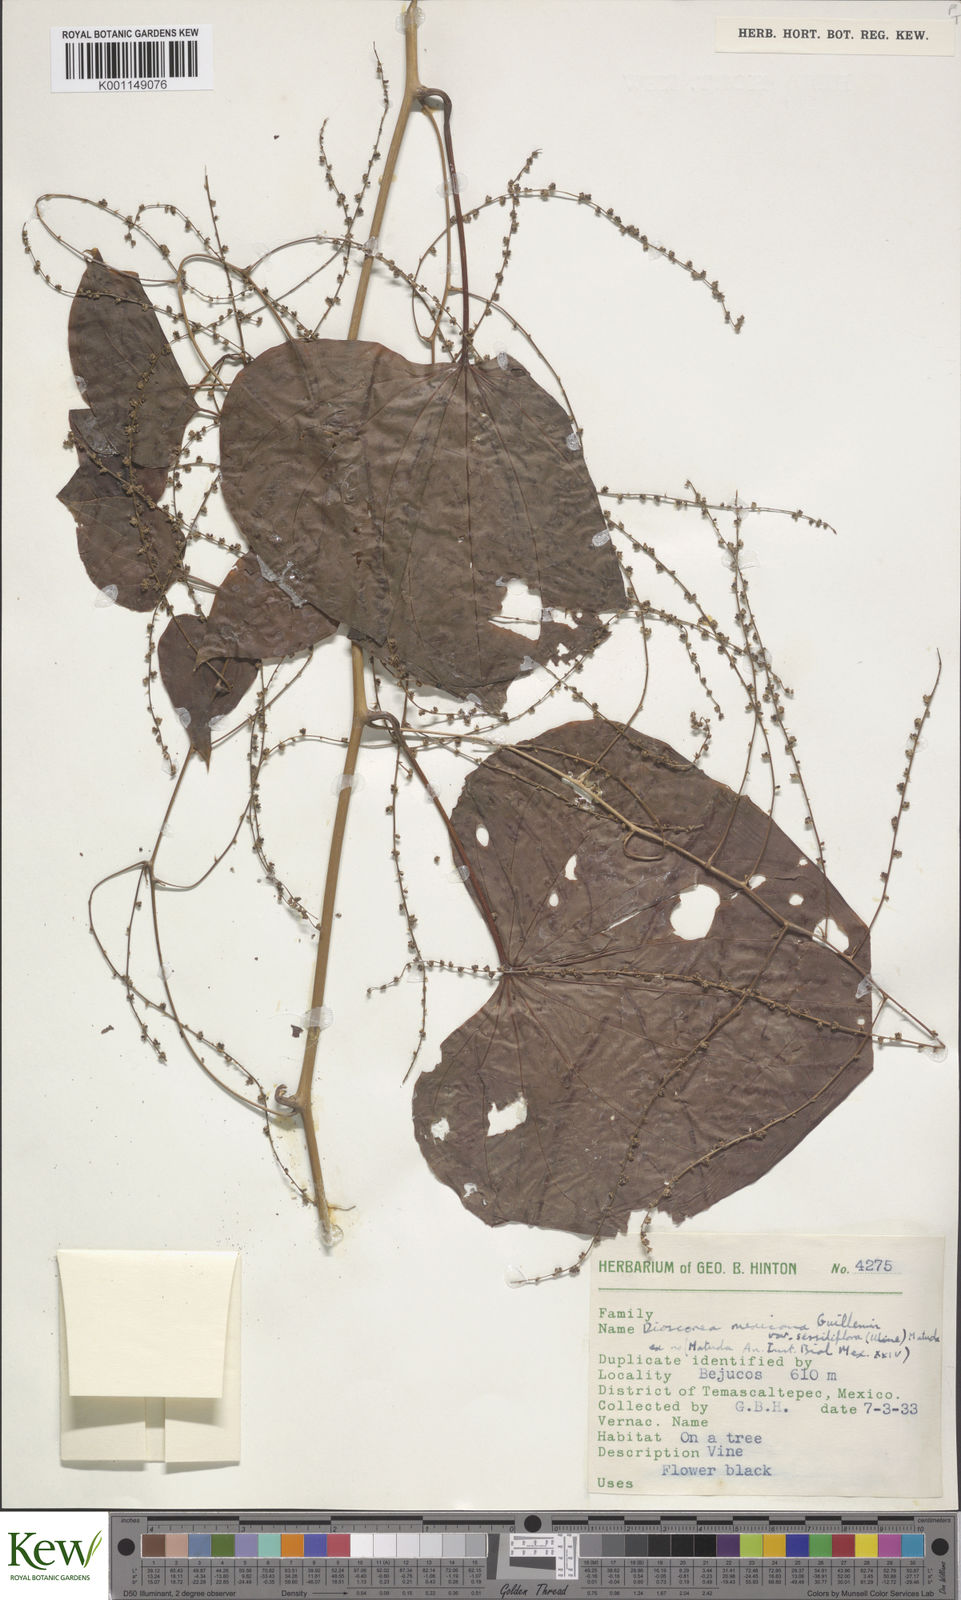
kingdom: Plantae
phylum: Tracheophyta
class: Liliopsida
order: Dioscoreales
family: Dioscoreaceae
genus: Dioscorea
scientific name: Dioscorea mexicana
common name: Mexican yam
